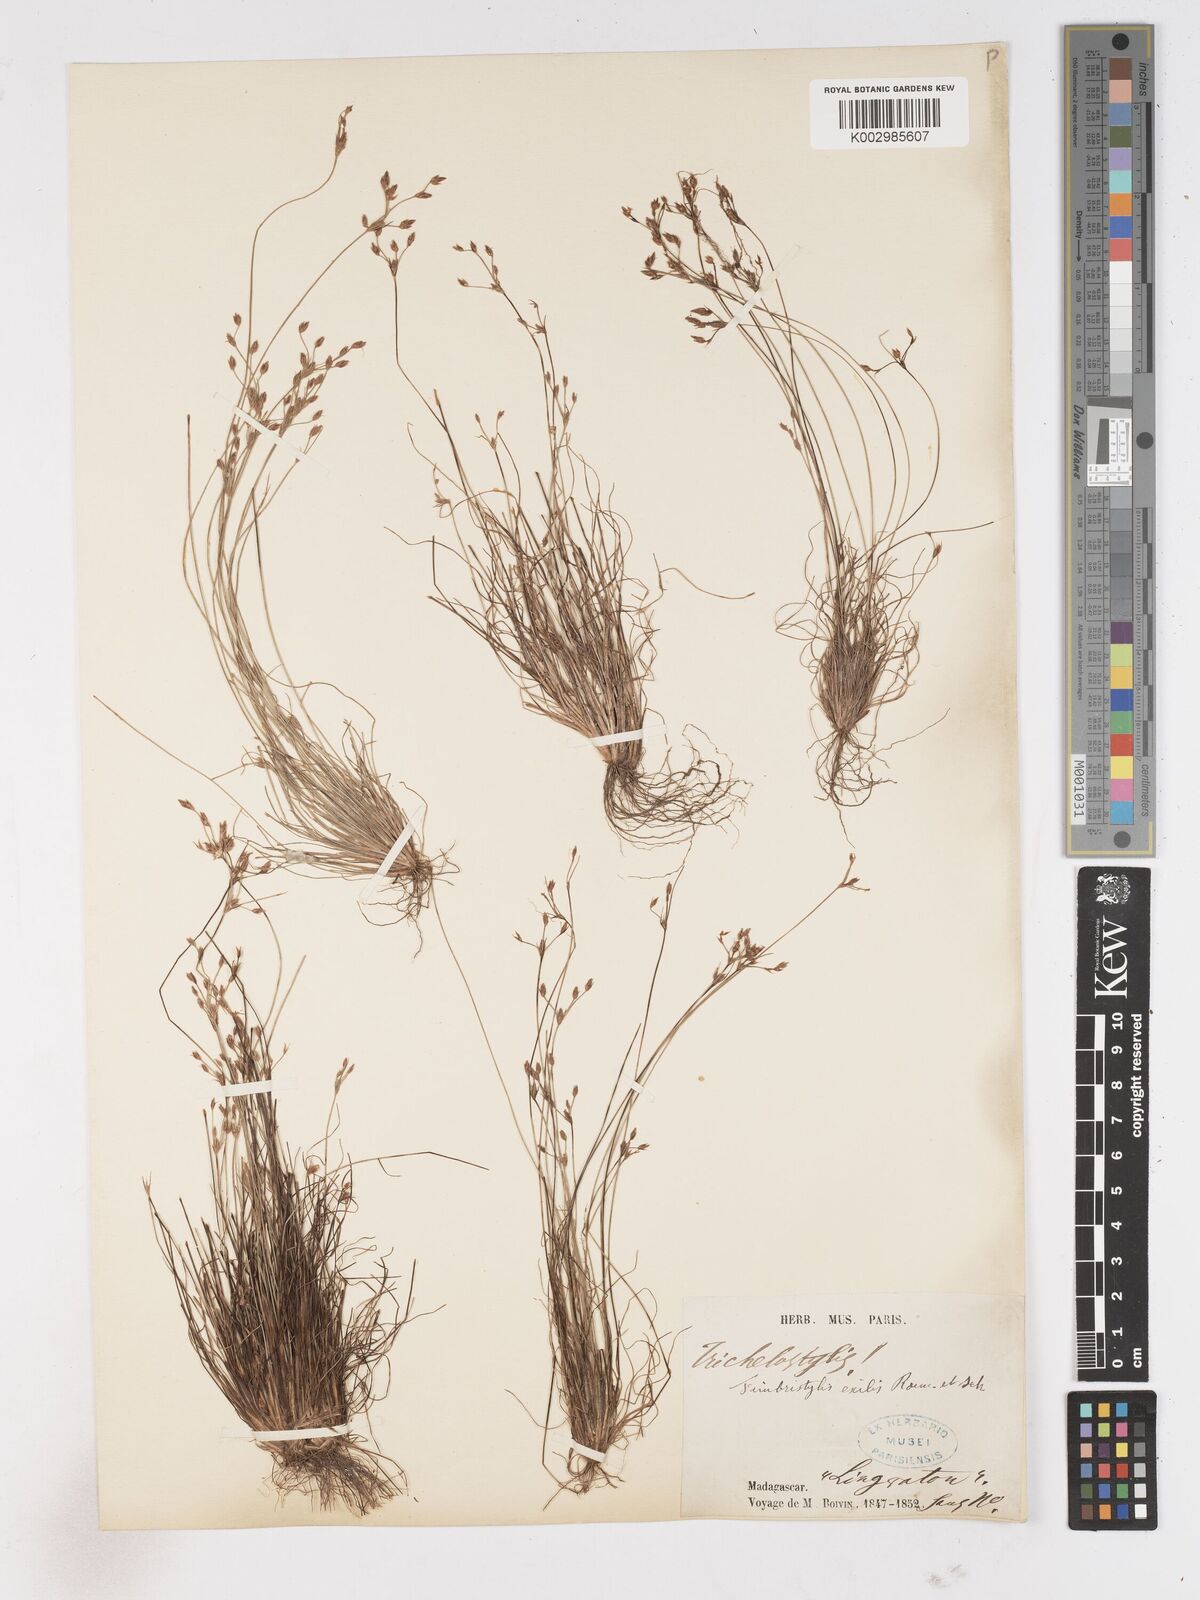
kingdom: Plantae
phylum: Tracheophyta
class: Liliopsida
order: Poales
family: Cyperaceae
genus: Bulbostylis
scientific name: Bulbostylis hispidula
